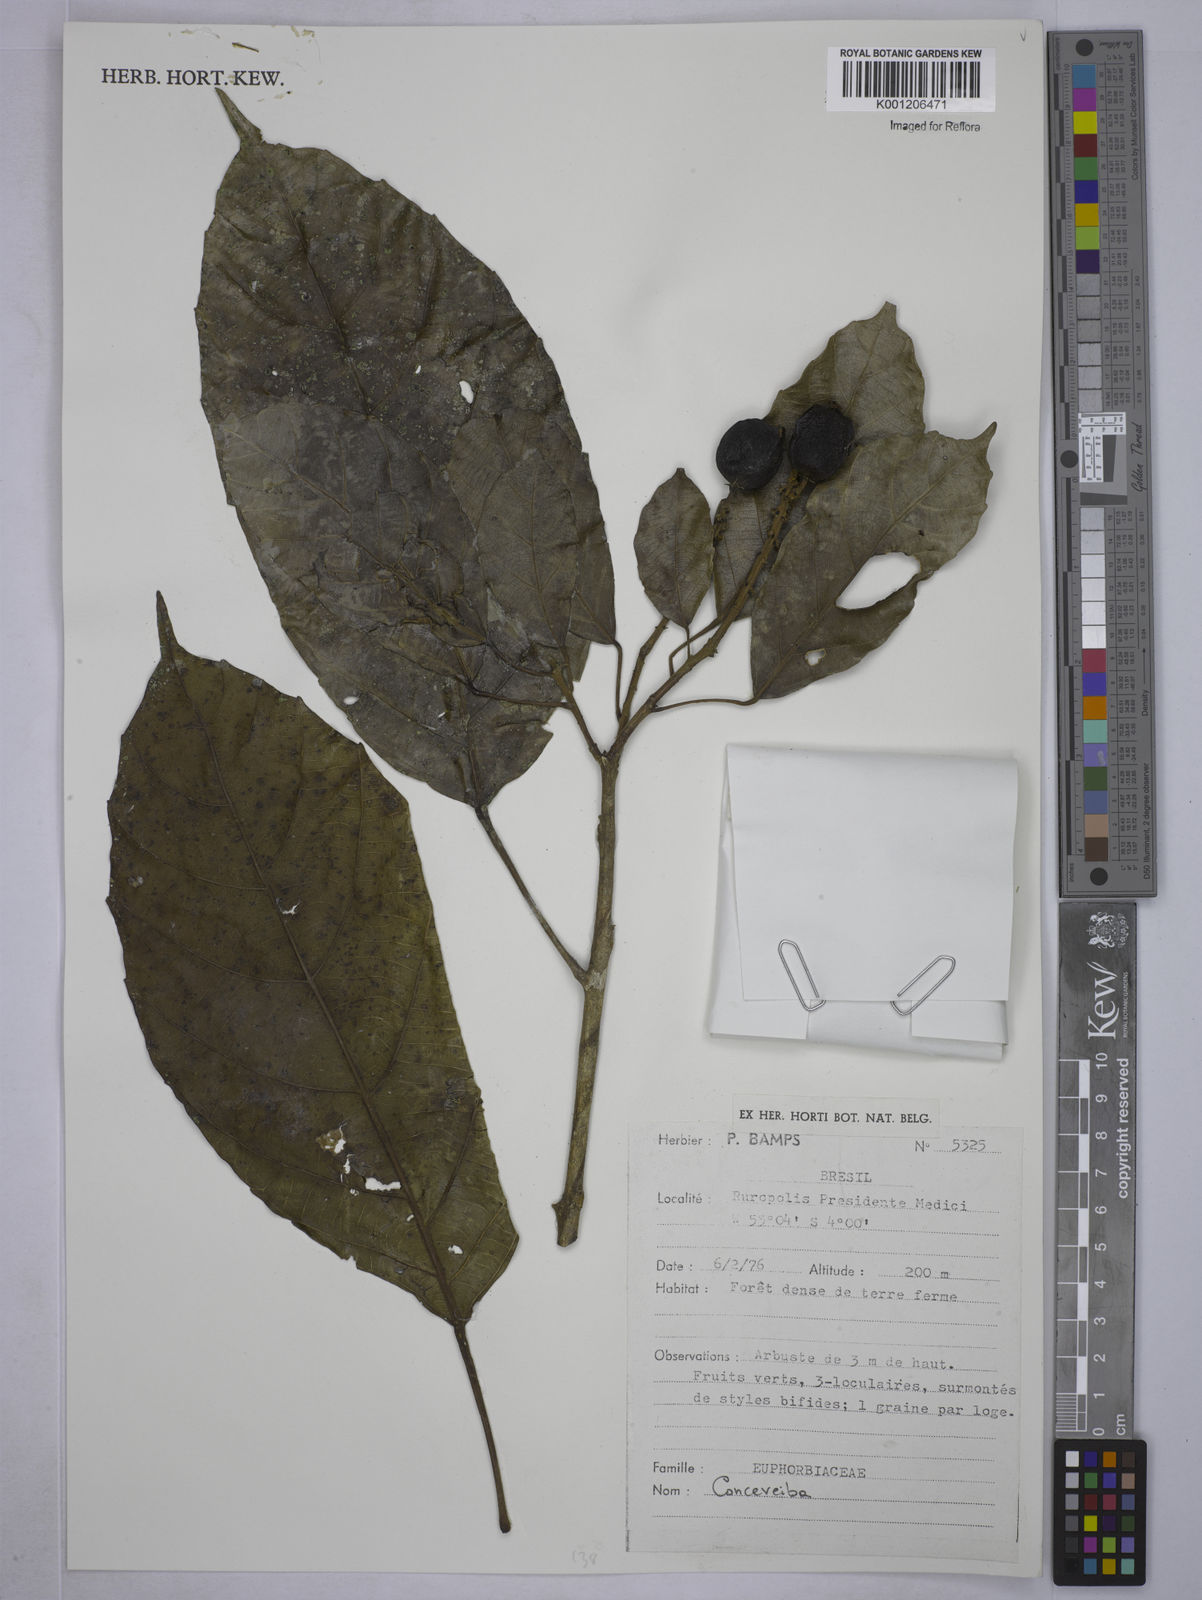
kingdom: Plantae
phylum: Tracheophyta
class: Magnoliopsida
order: Malpighiales
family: Euphorbiaceae
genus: Conceveiba
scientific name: Conceveiba
